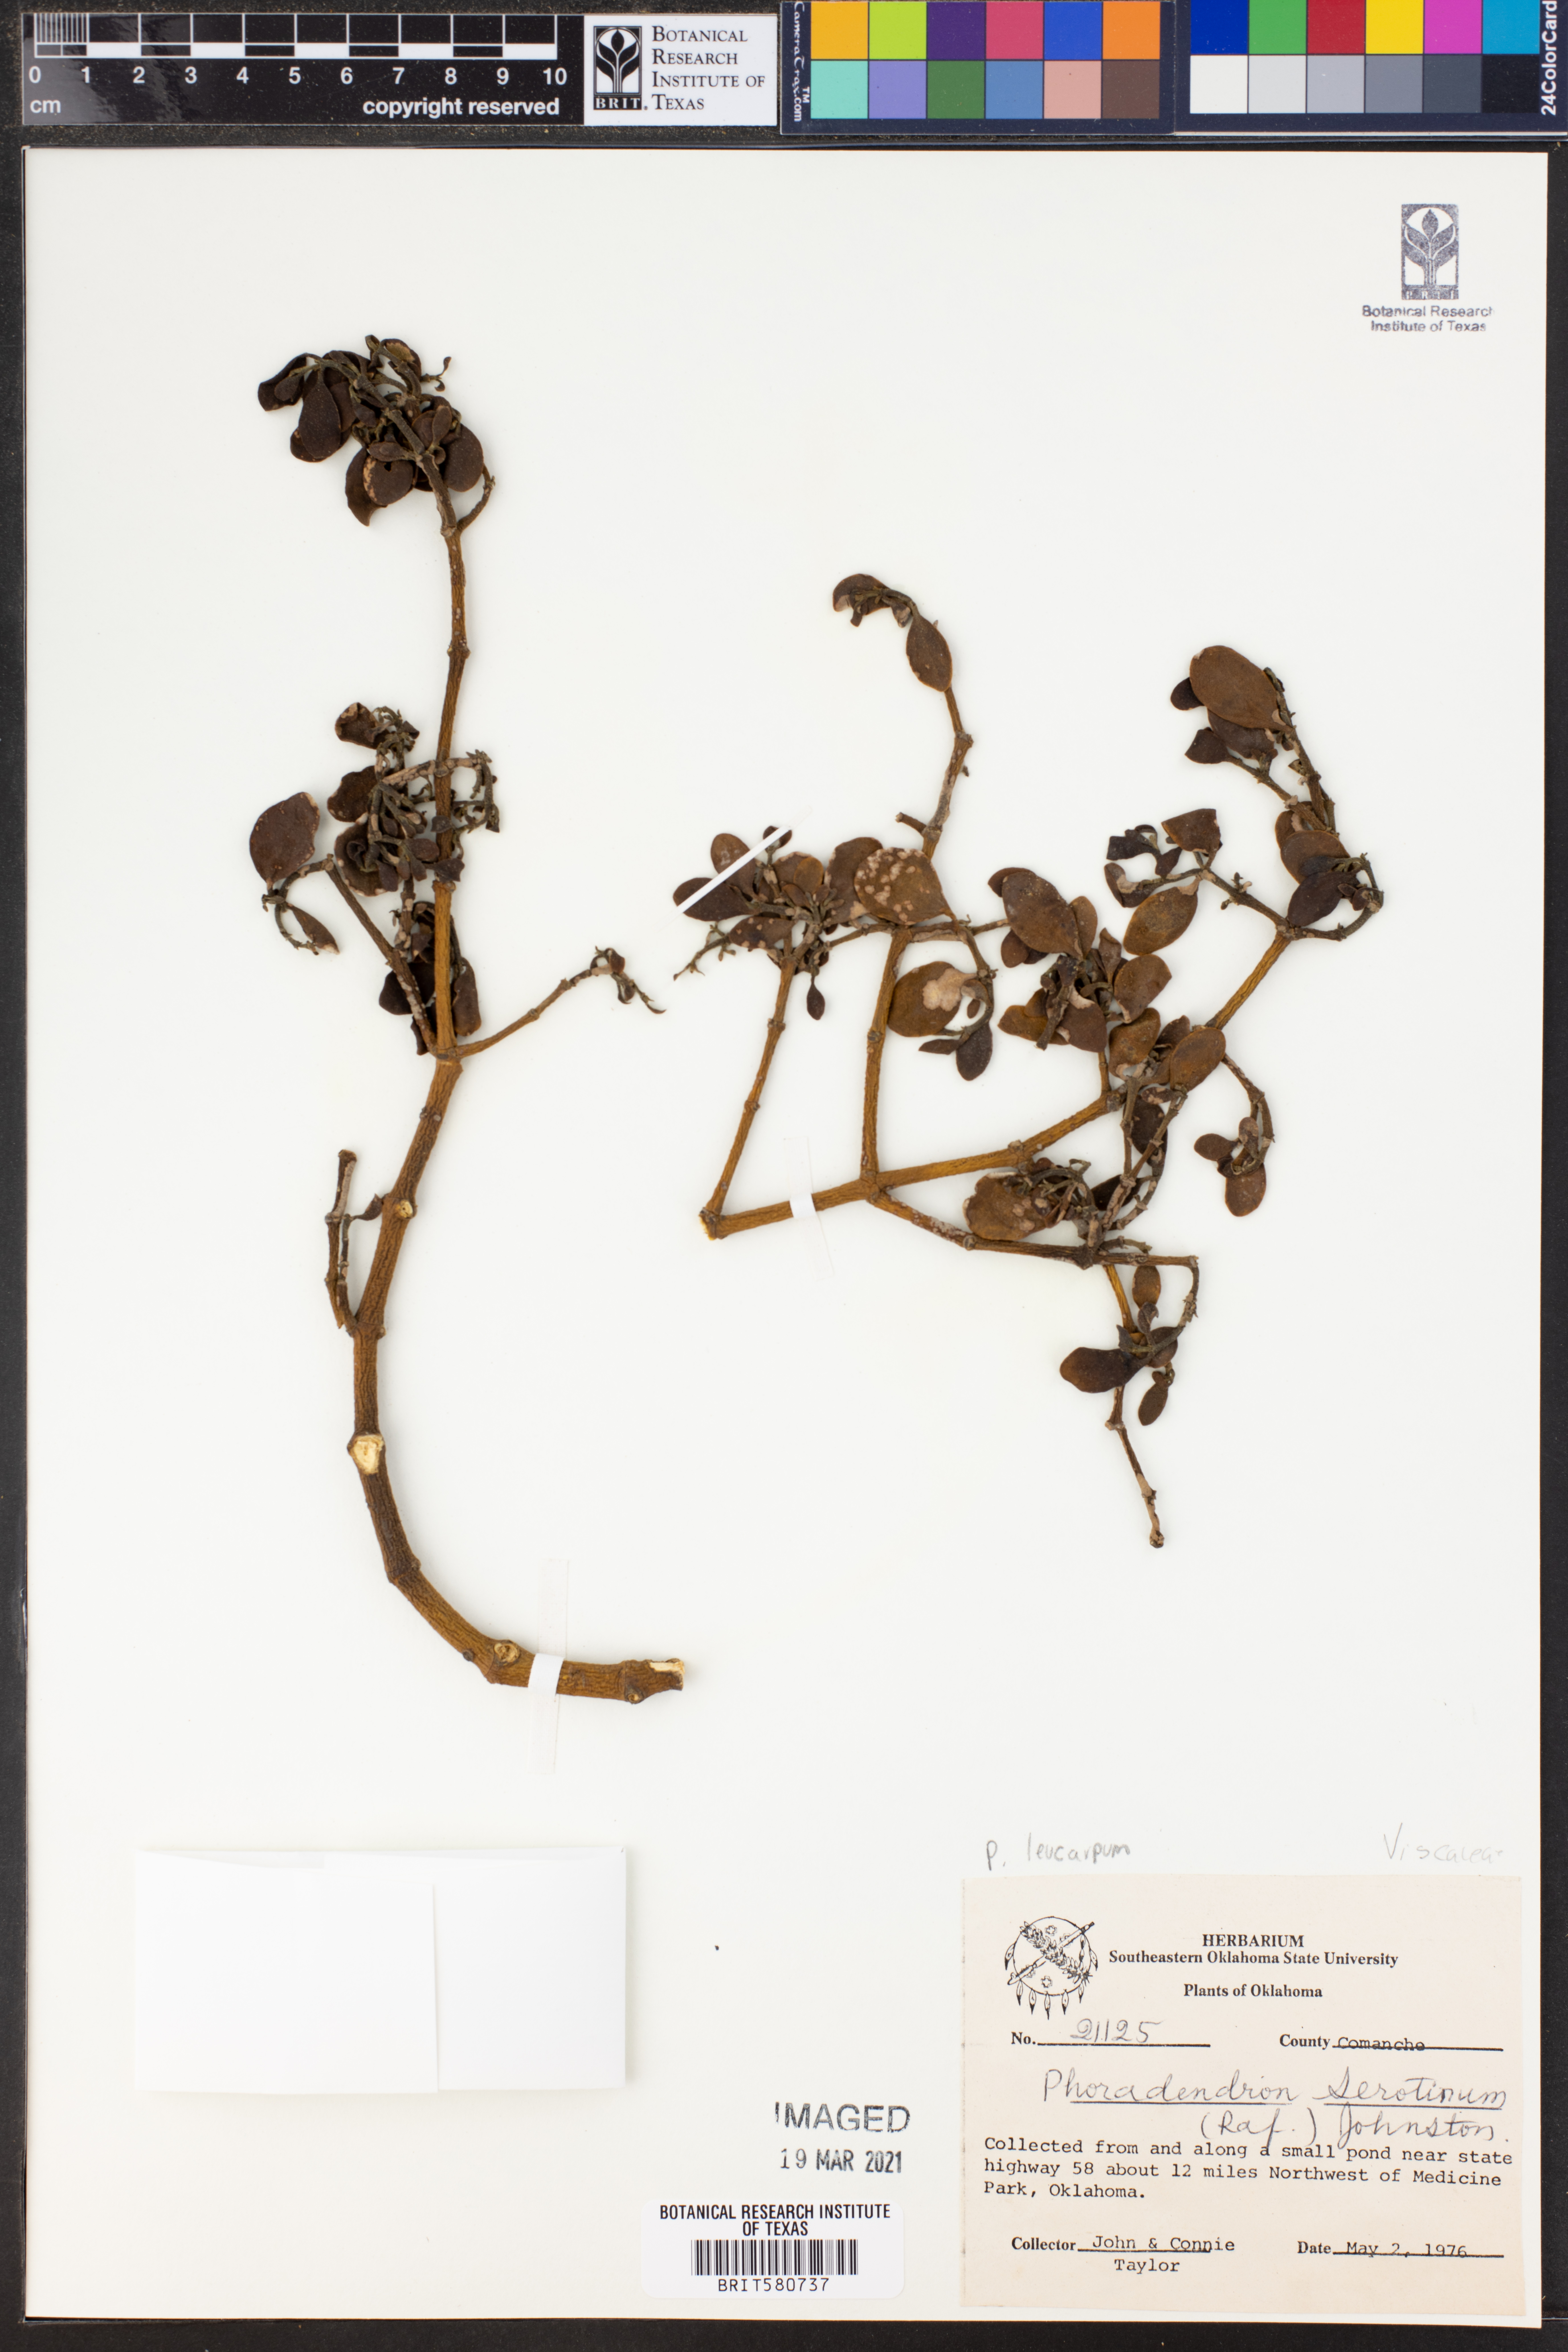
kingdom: Plantae
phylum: Tracheophyta
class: Magnoliopsida
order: Santalales
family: Viscaceae
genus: Phoradendron
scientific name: Phoradendron leucarpum
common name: Pacific mistletoe
